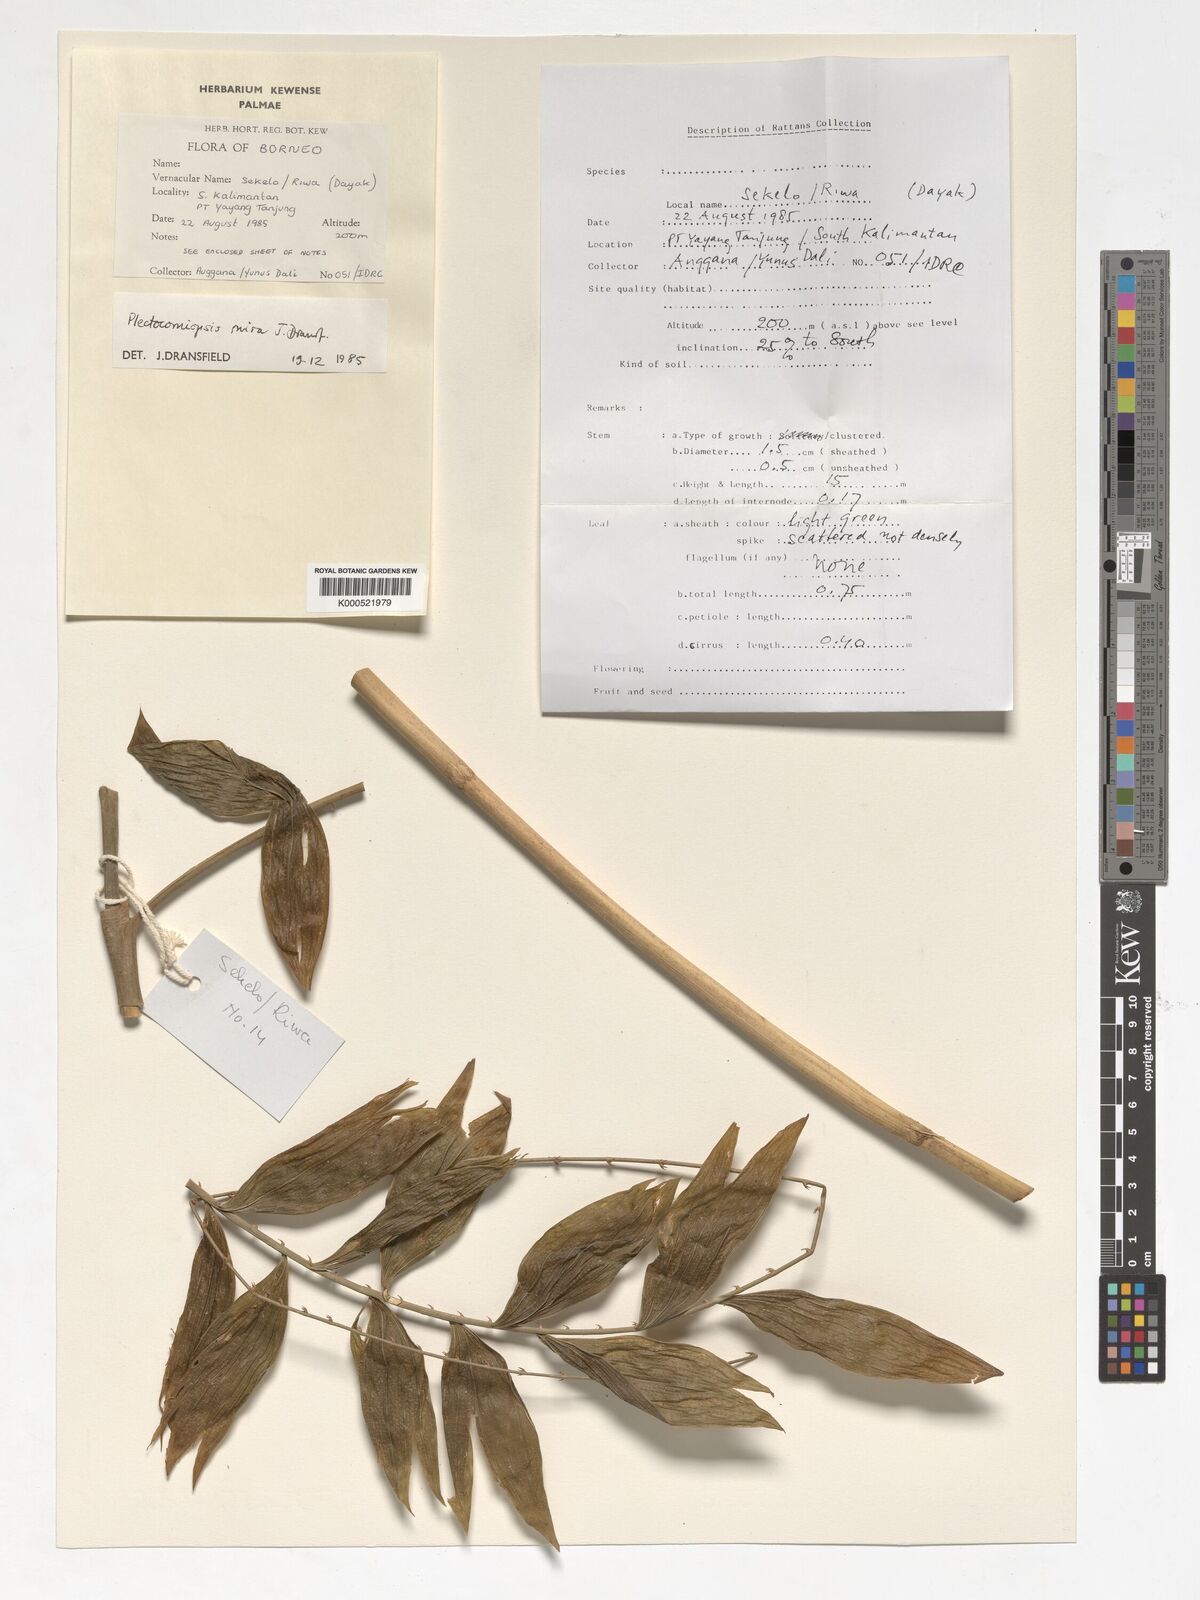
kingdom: Plantae
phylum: Tracheophyta
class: Liliopsida
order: Arecales
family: Arecaceae
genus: Plectocomiopsis
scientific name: Plectocomiopsis mira
